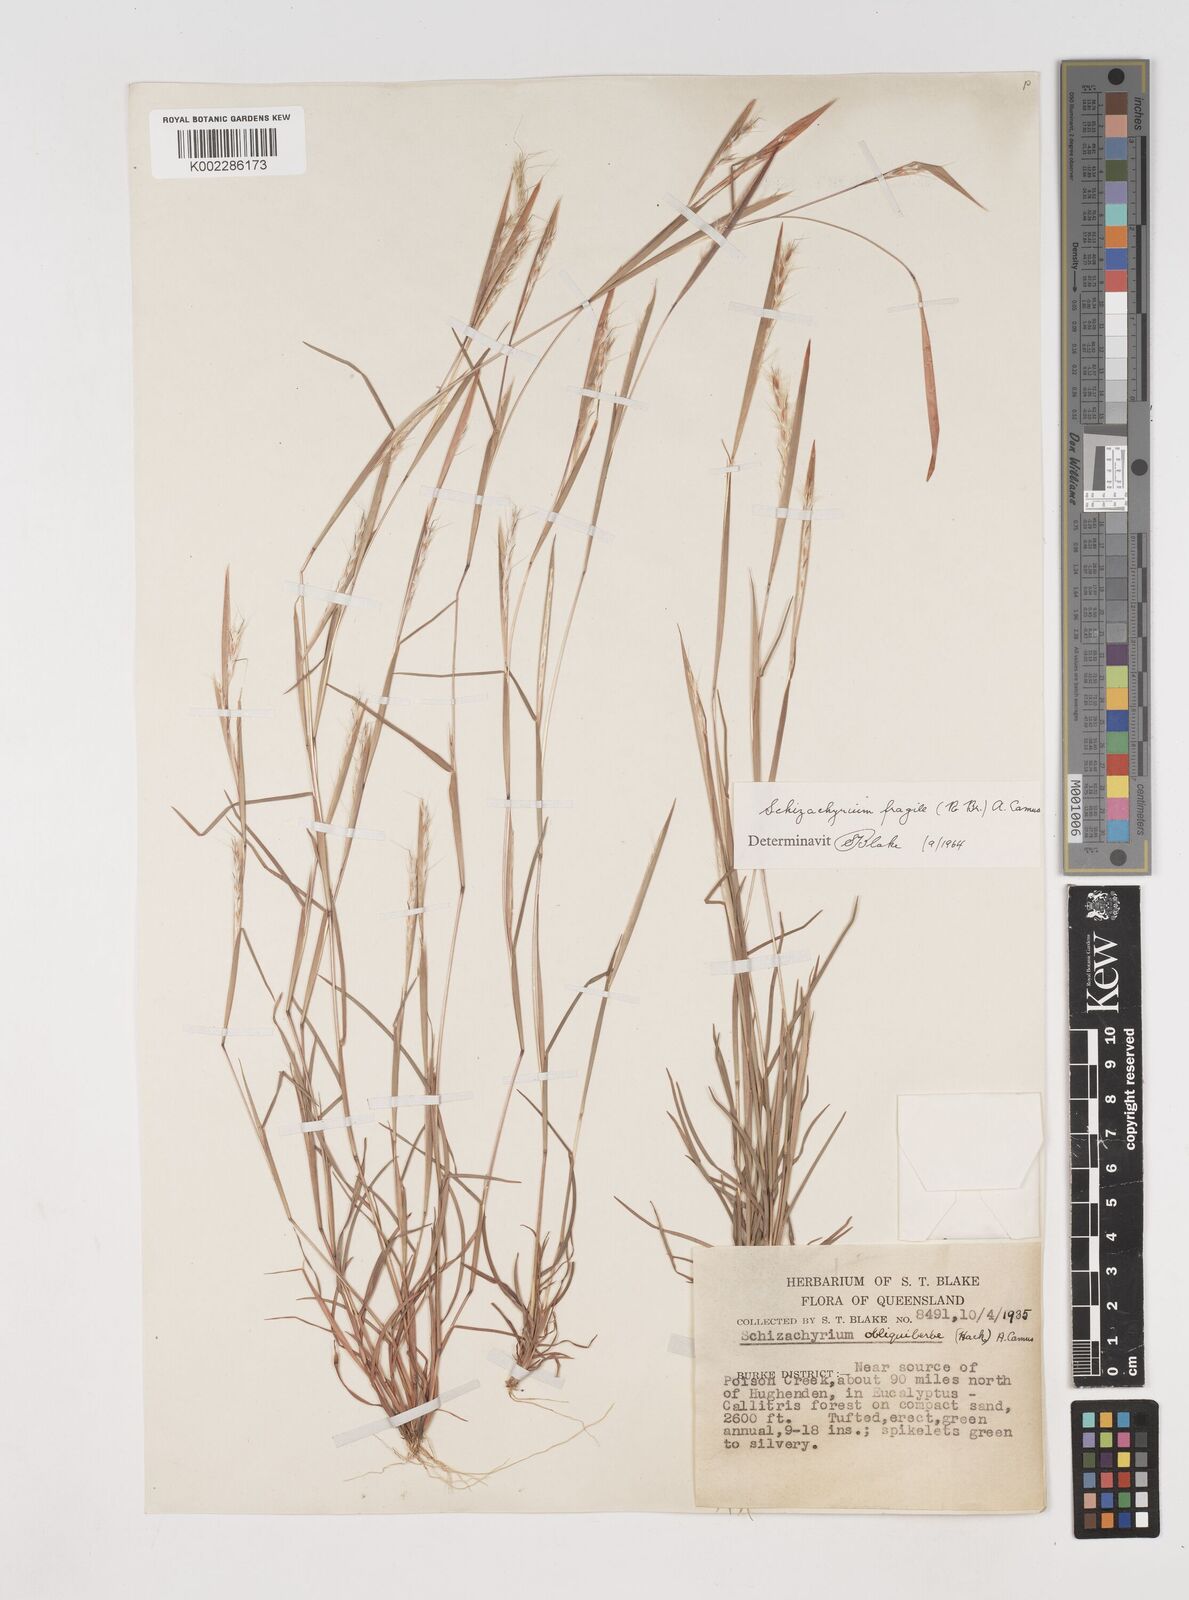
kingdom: Plantae
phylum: Tracheophyta
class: Liliopsida
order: Poales
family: Poaceae
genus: Schizachyrium
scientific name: Schizachyrium fragile
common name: Red spathe grass
